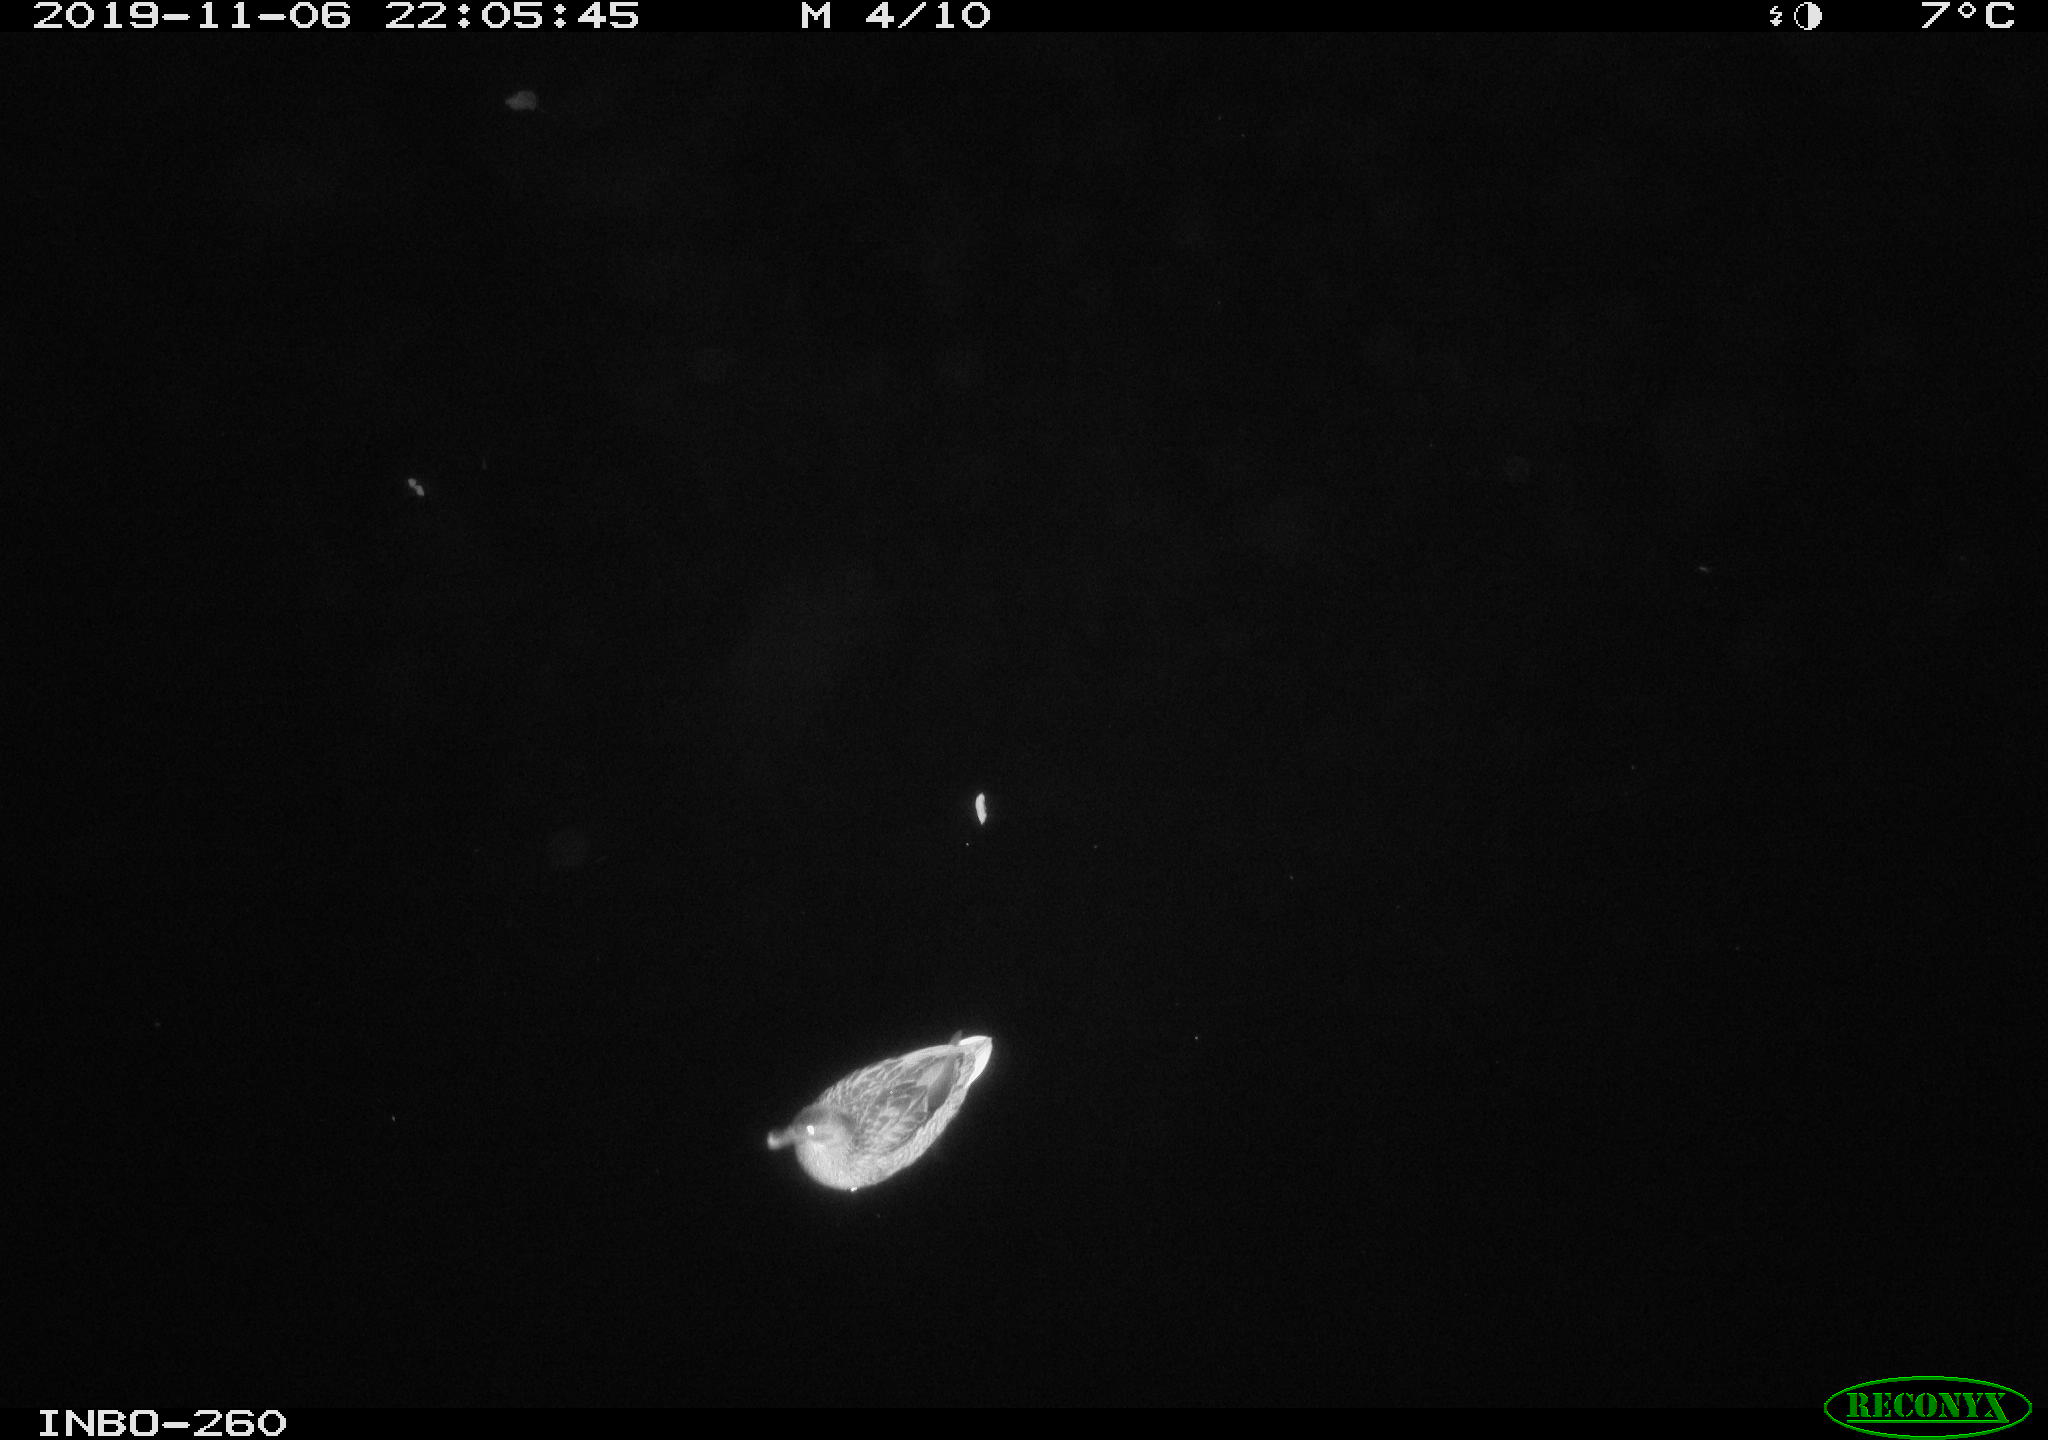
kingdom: Animalia
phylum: Chordata
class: Aves
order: Anseriformes
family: Anatidae
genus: Anas
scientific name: Anas platyrhynchos
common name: Mallard
